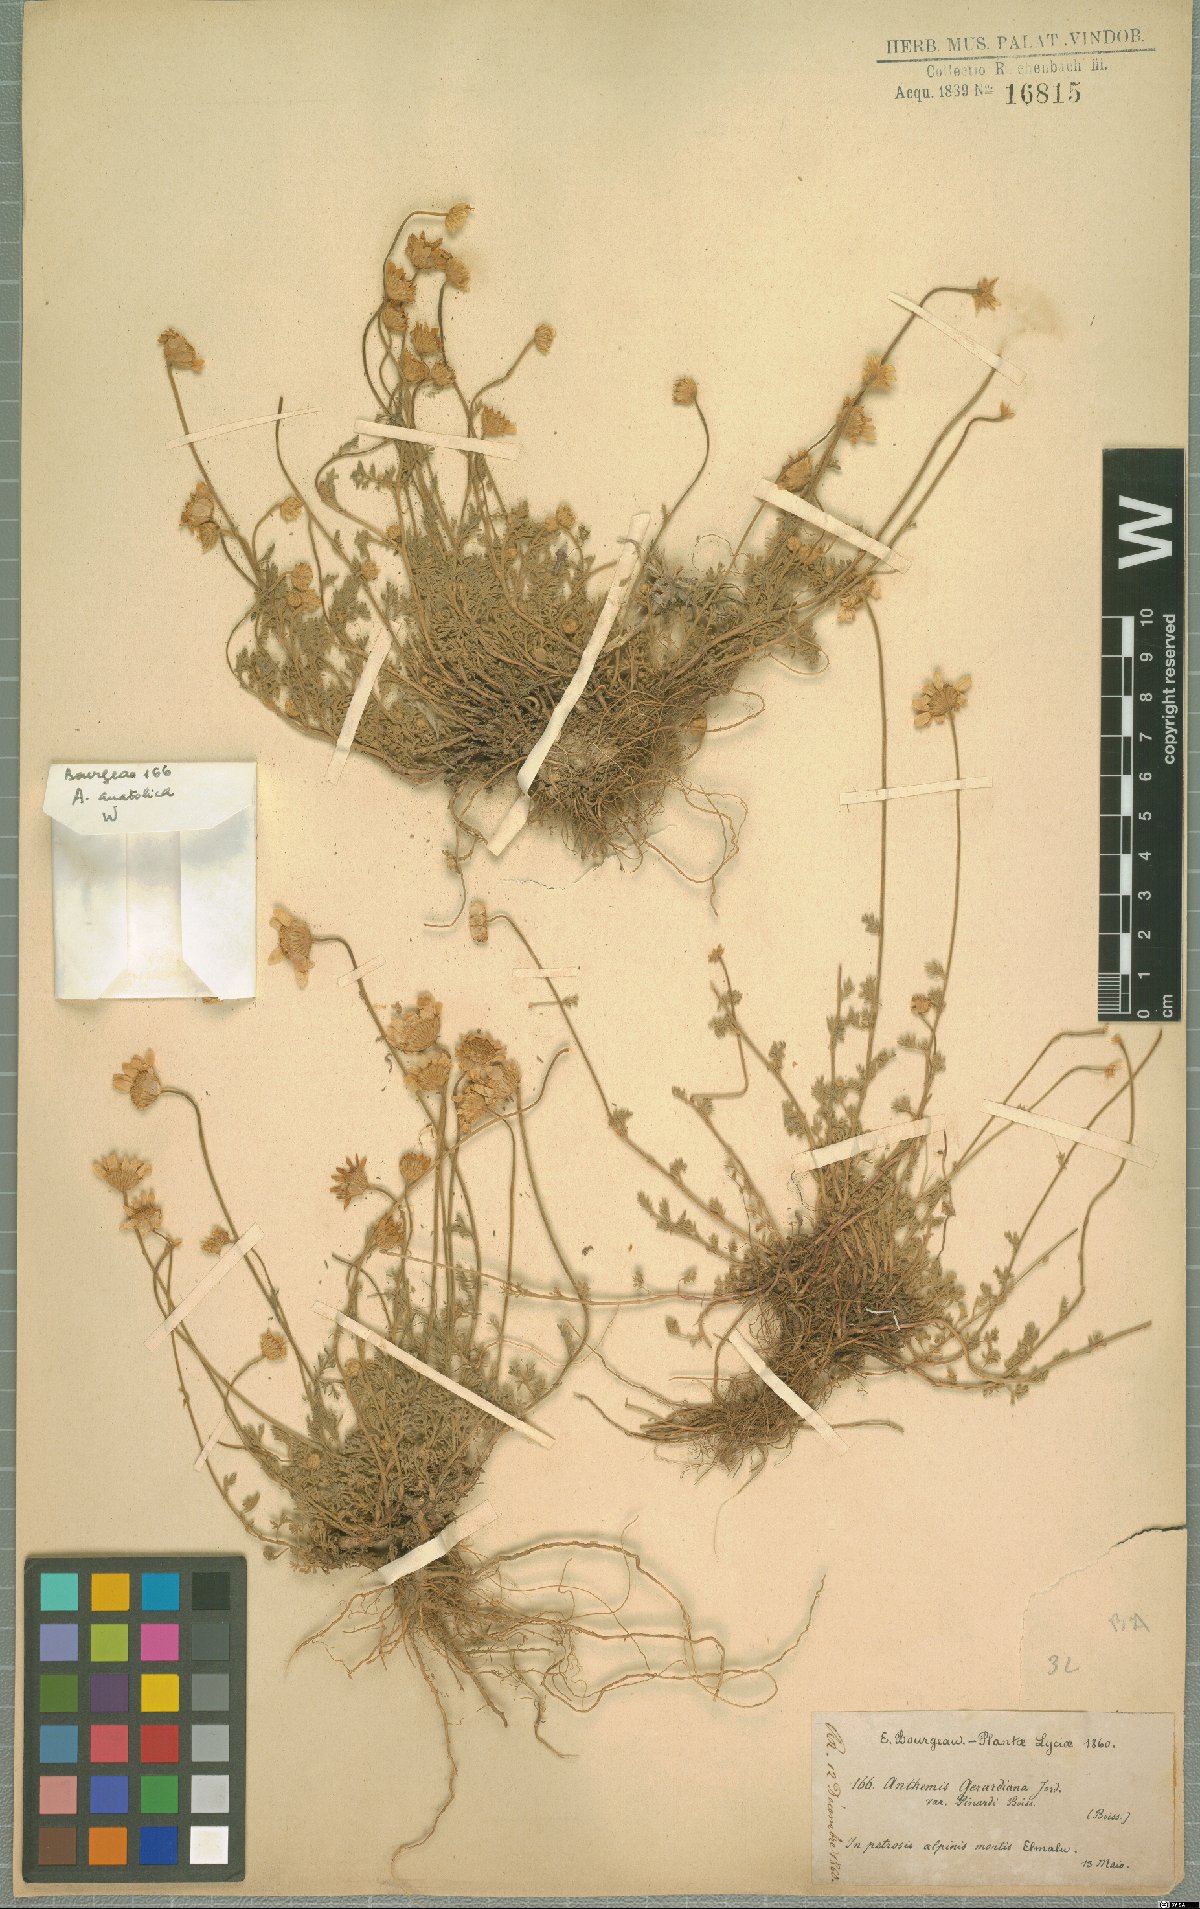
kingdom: Plantae
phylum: Tracheophyta
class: Magnoliopsida
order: Asterales
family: Asteraceae
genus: Anthemis
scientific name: Anthemis cretica
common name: Mountain dog-daisy
